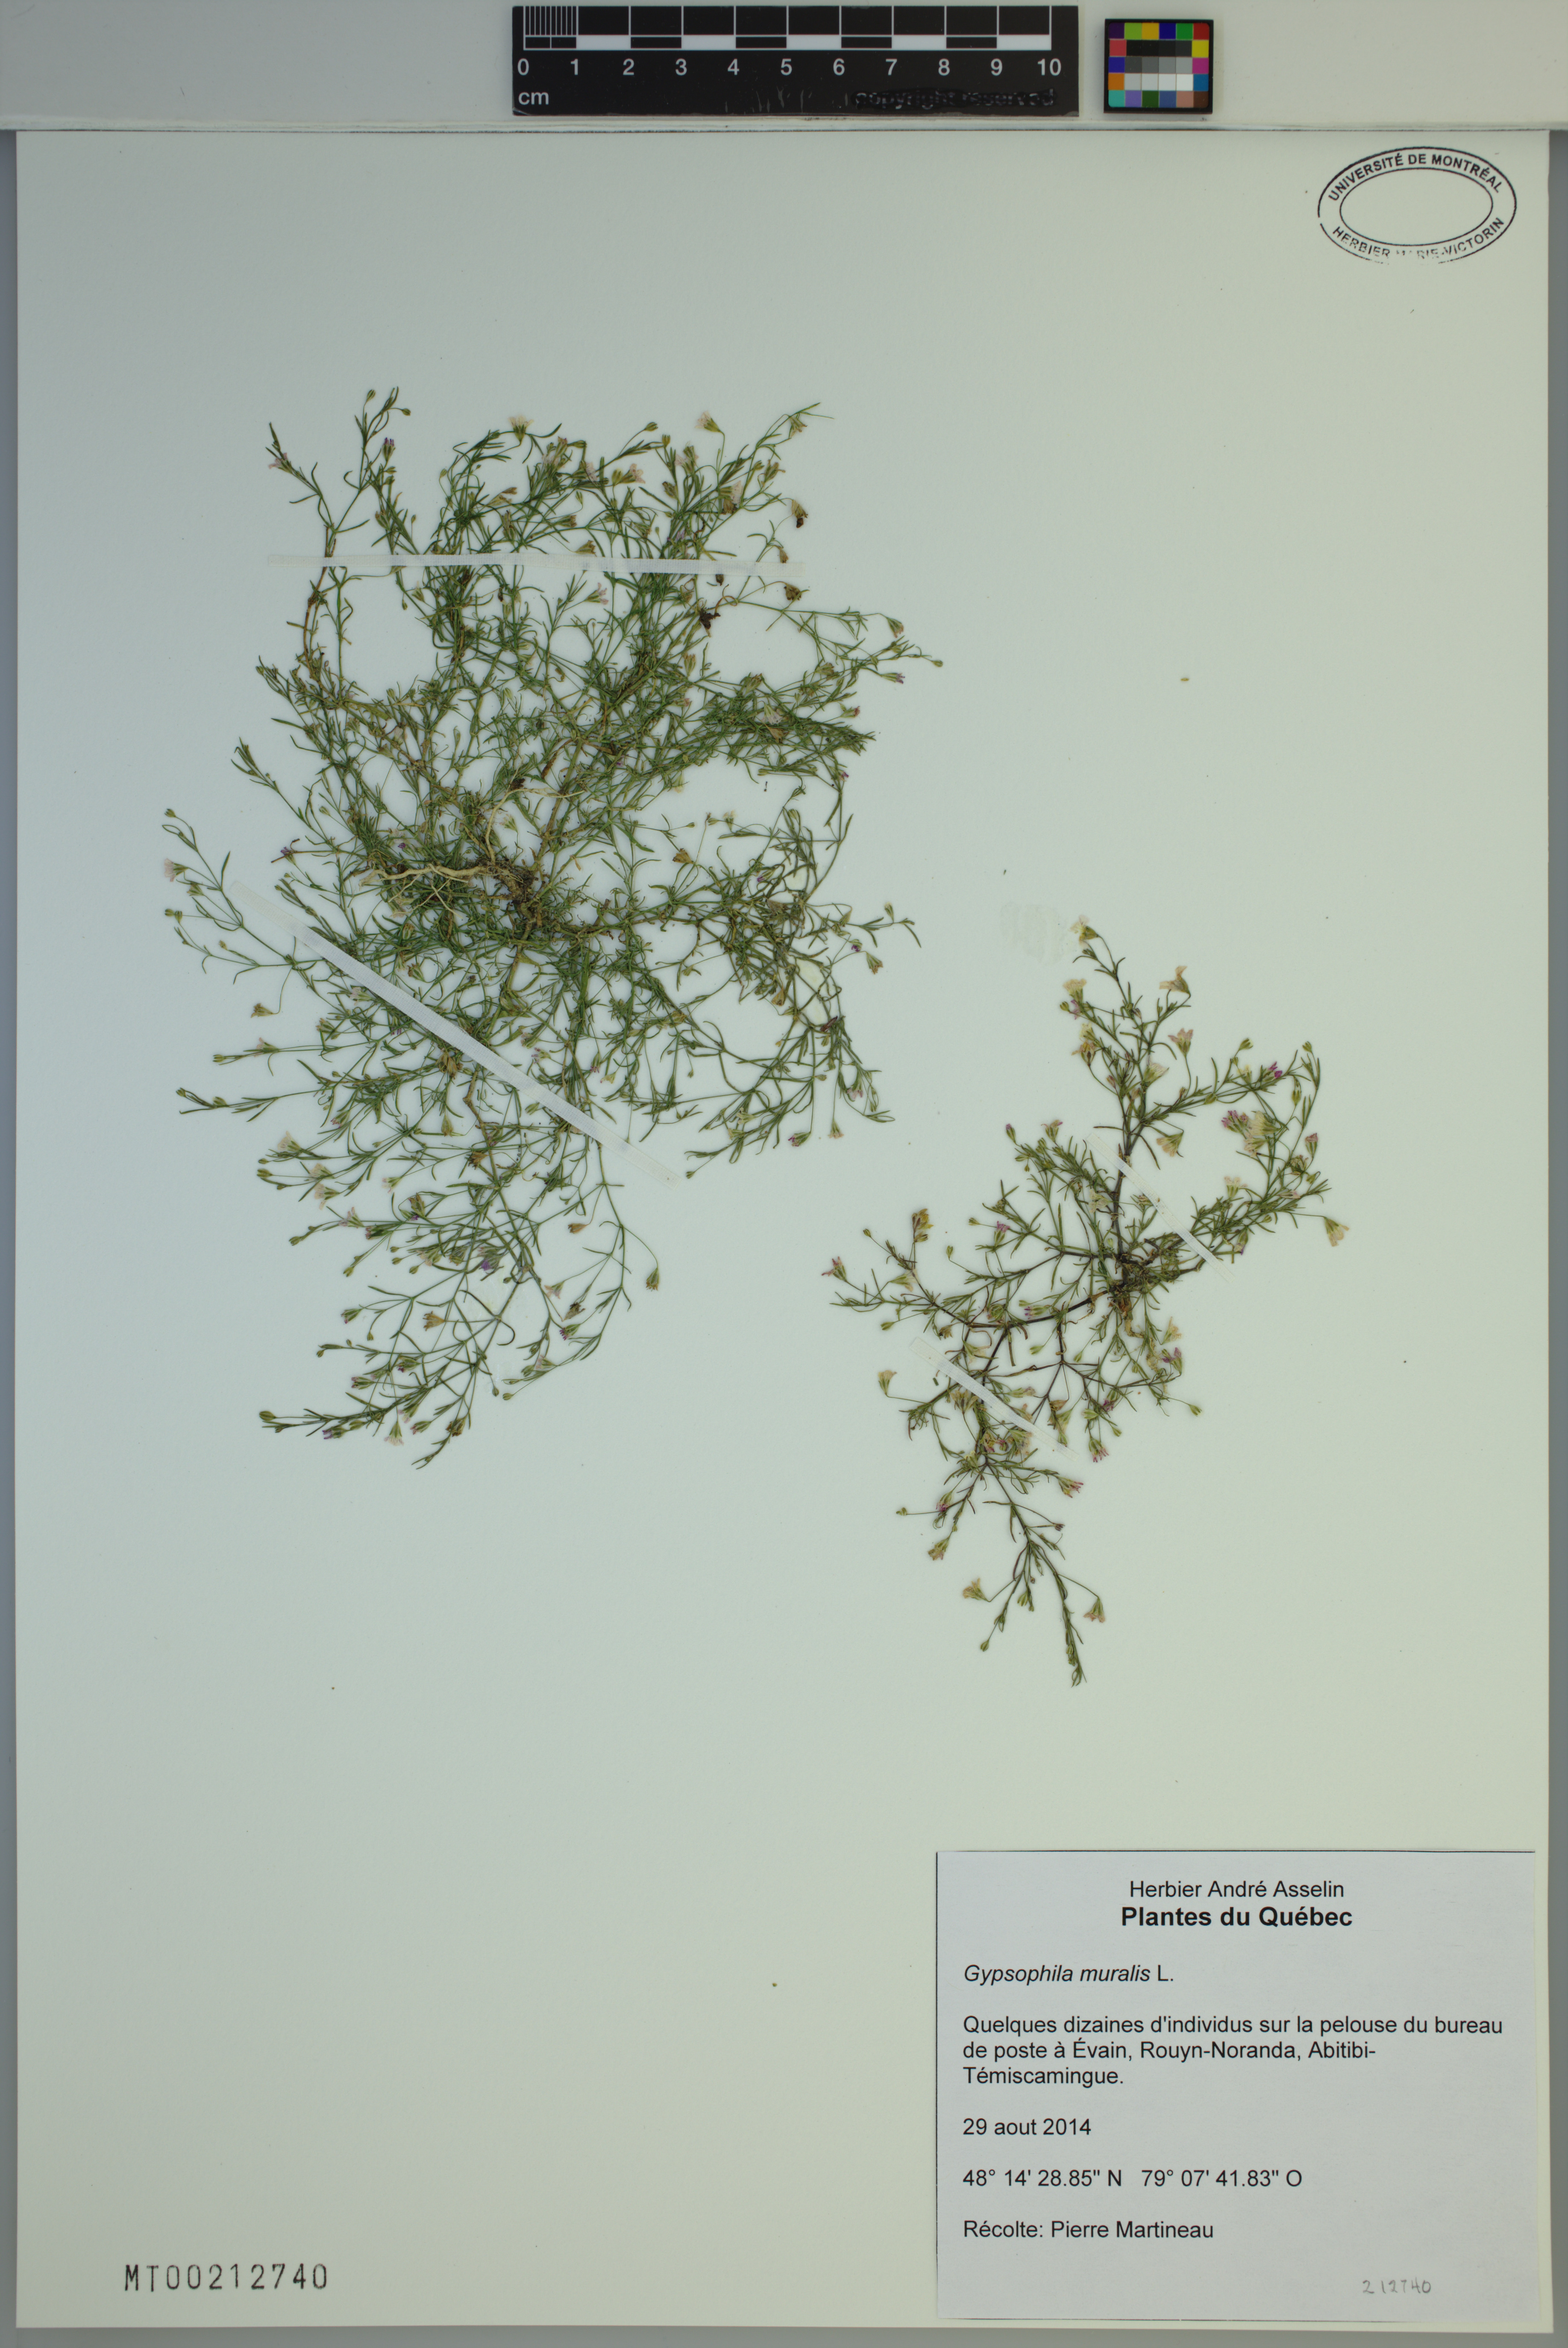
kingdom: Plantae
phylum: Tracheophyta
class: Magnoliopsida
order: Caryophyllales
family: Caryophyllaceae
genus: Psammophiliella
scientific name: Psammophiliella muralis
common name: Cushion baby's-breath
